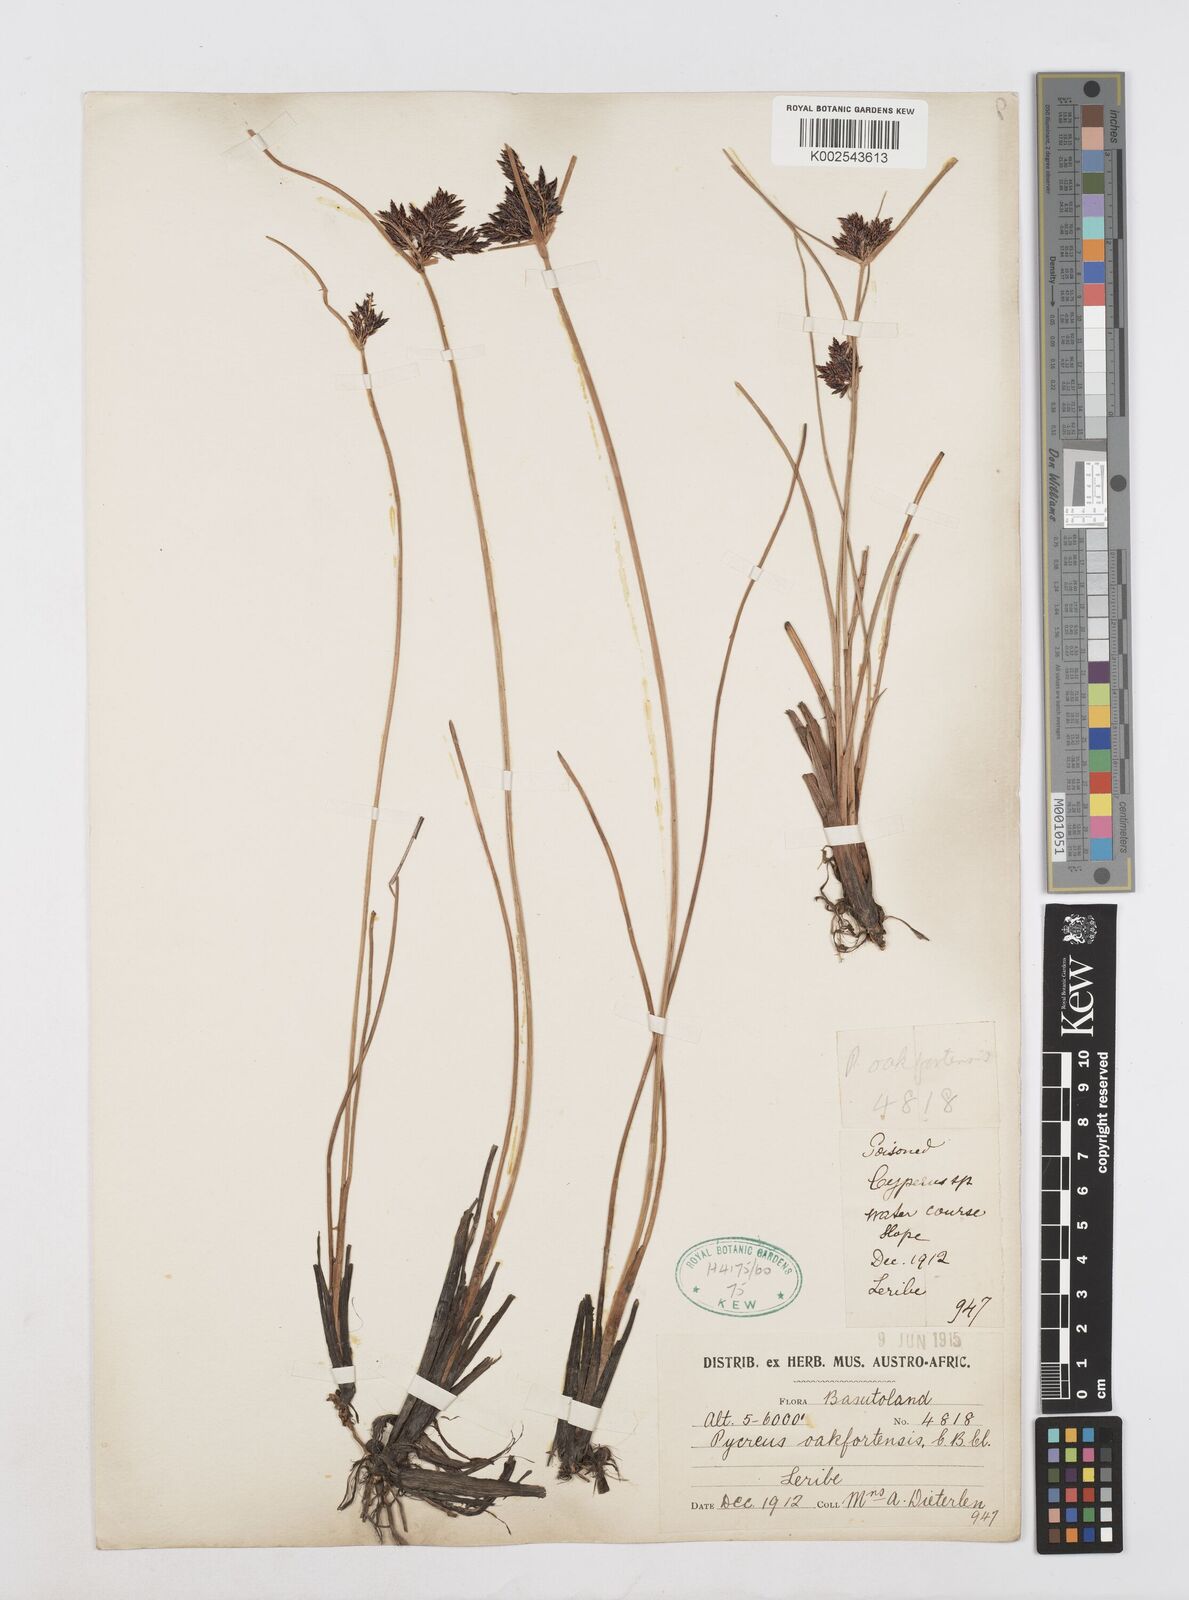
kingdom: Plantae
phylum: Tracheophyta
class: Liliopsida
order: Poales
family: Cyperaceae
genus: Cyperus
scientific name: Cyperus oakfortensis
